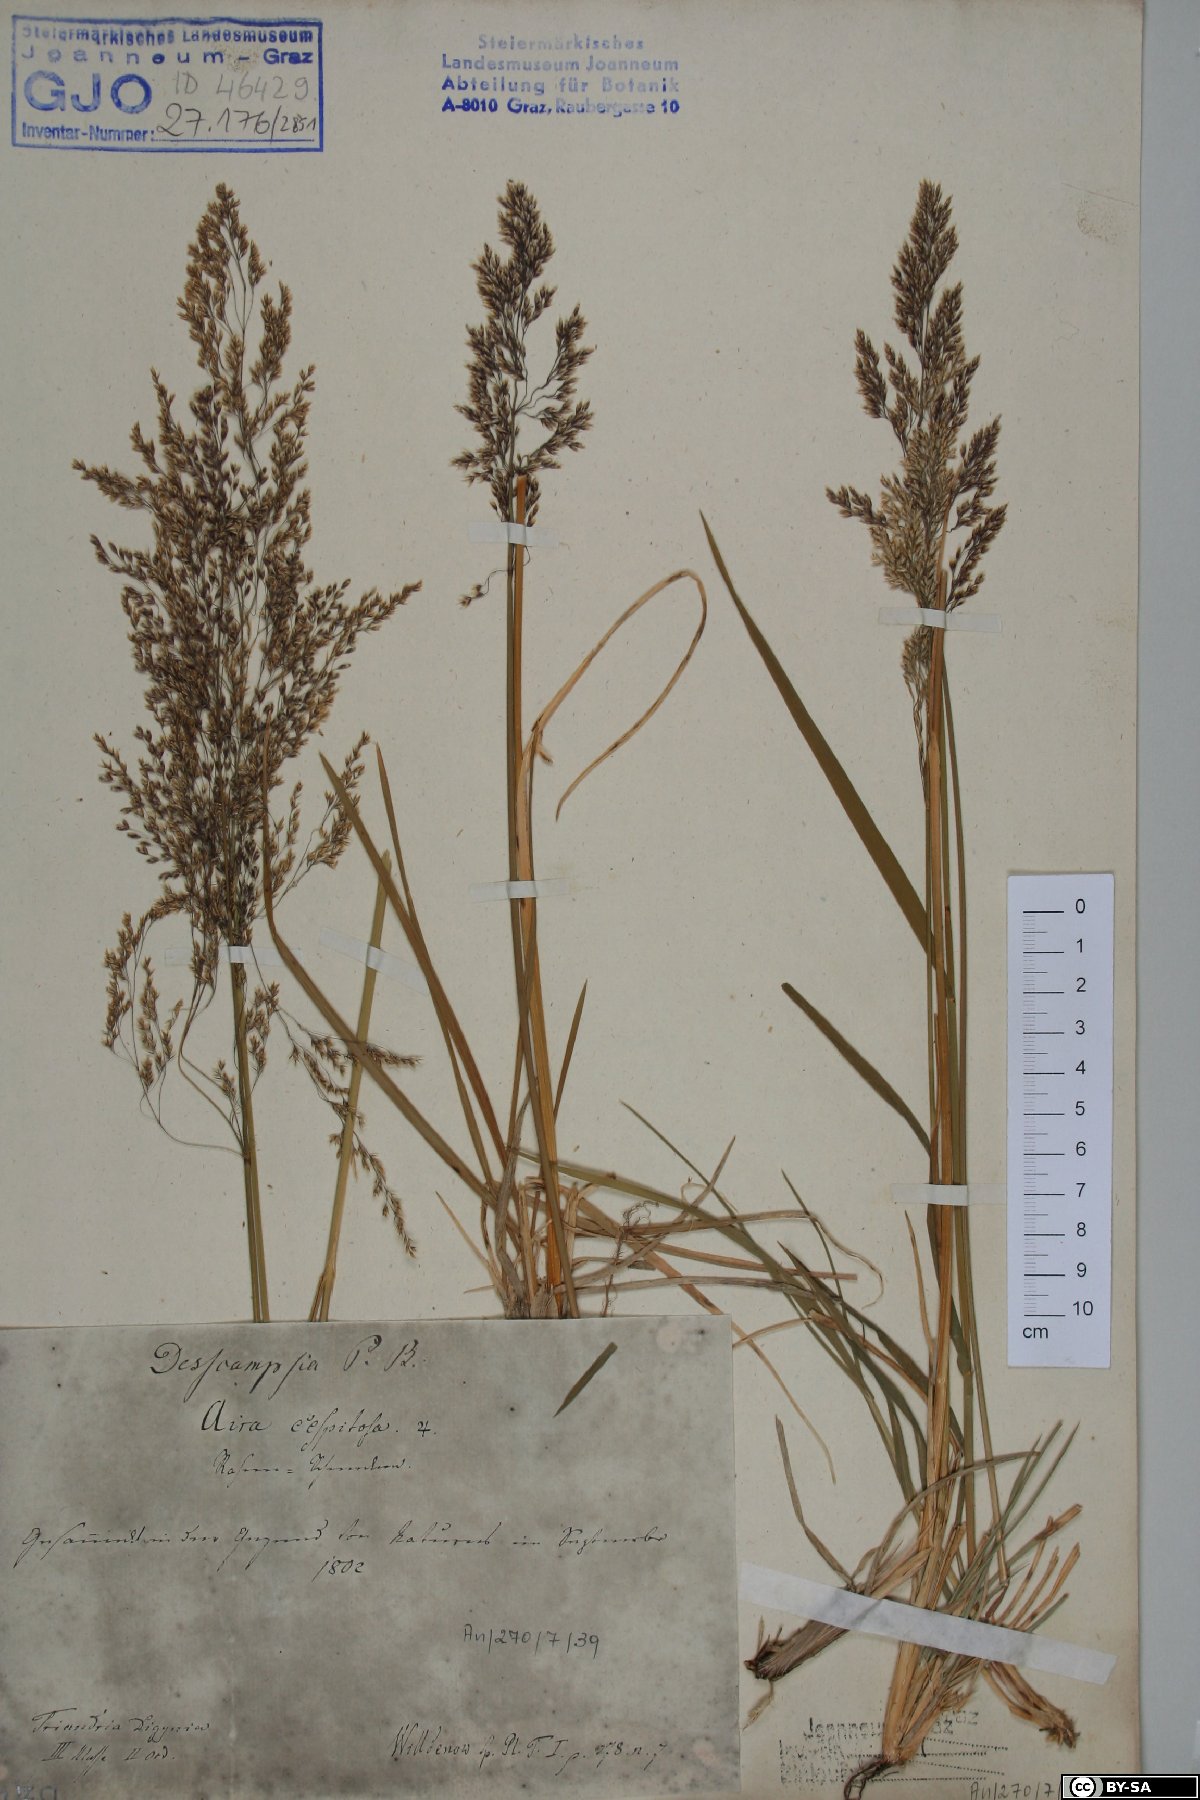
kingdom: Plantae
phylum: Tracheophyta
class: Liliopsida
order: Poales
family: Poaceae
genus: Deschampsia
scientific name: Deschampsia cespitosa
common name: Tufted hair-grass
